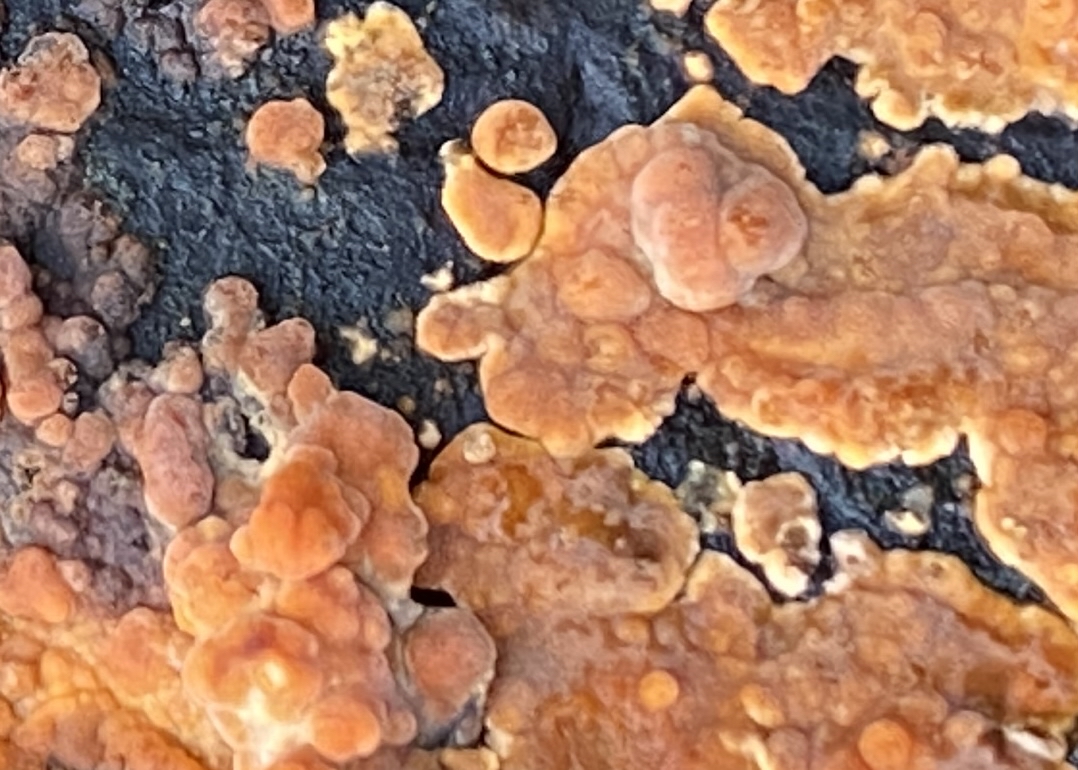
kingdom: Fungi
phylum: Basidiomycota
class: Agaricomycetes
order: Russulales
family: Peniophoraceae
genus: Peniophora
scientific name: Peniophora incarnata
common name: laksefarvet voksskind
